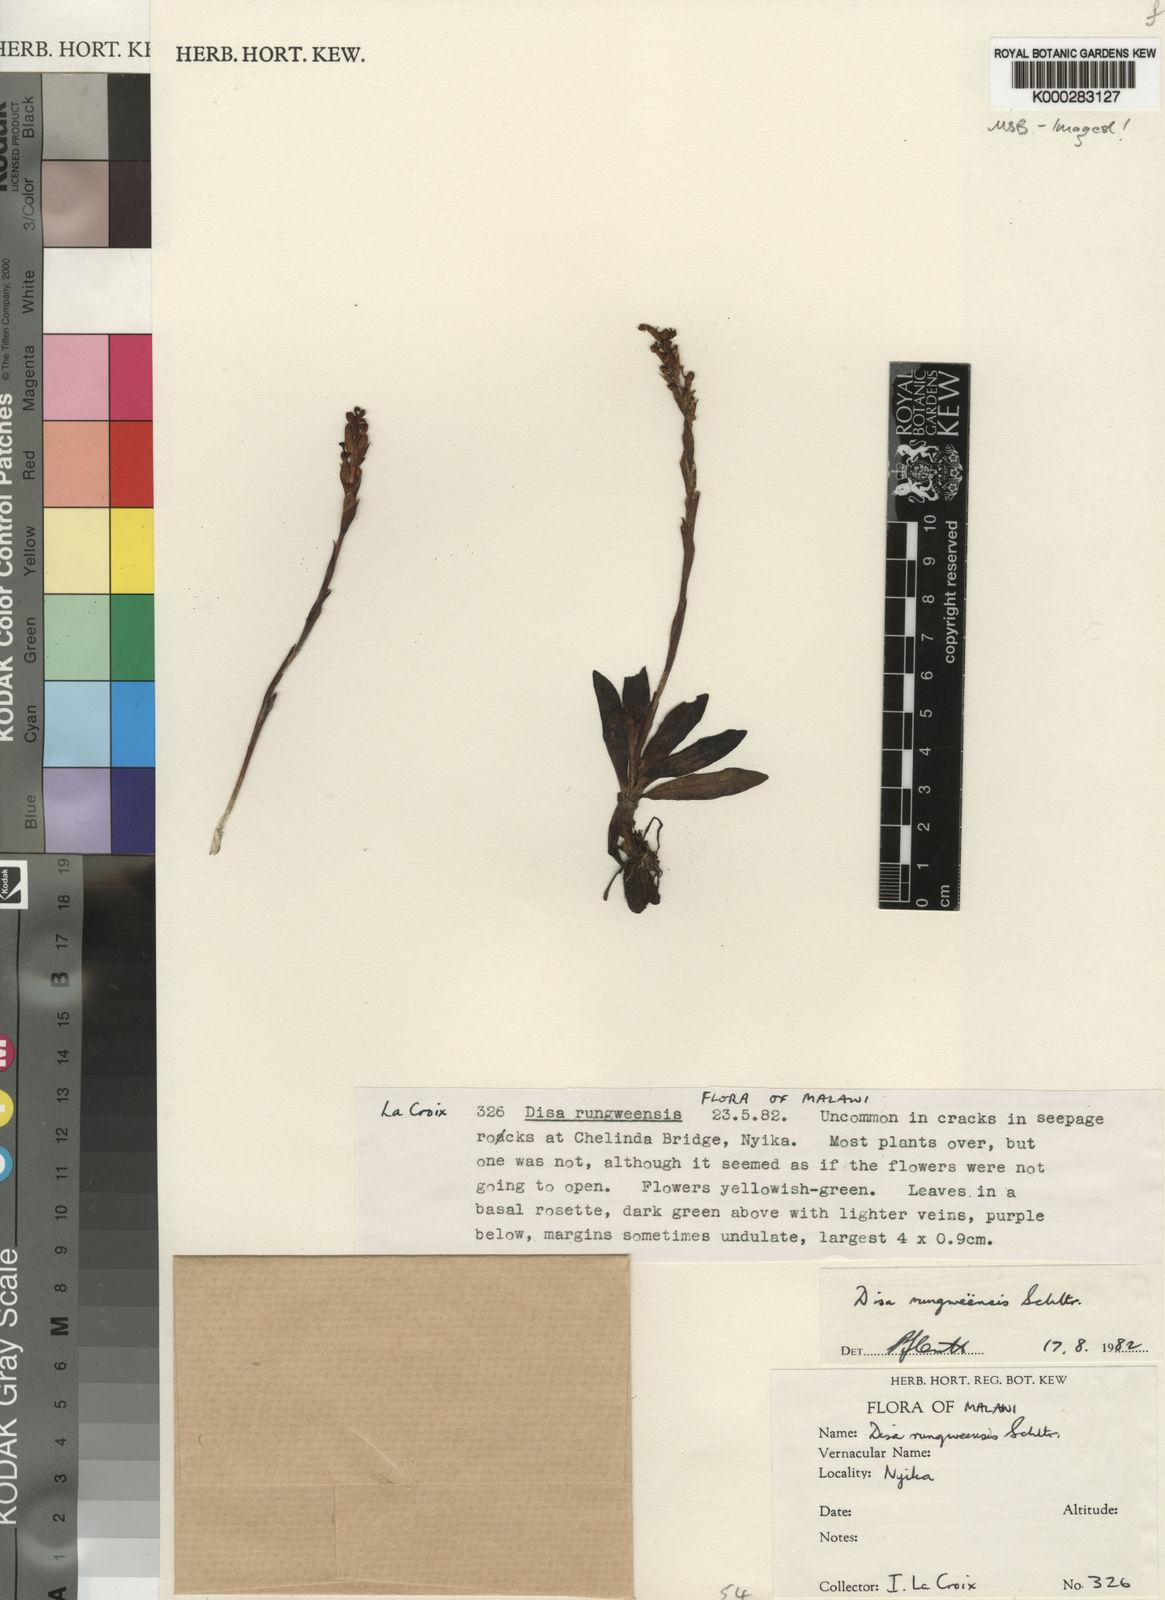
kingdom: Plantae
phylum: Tracheophyta
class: Liliopsida
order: Asparagales
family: Orchidaceae
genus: Disa
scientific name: Disa rungweensis
